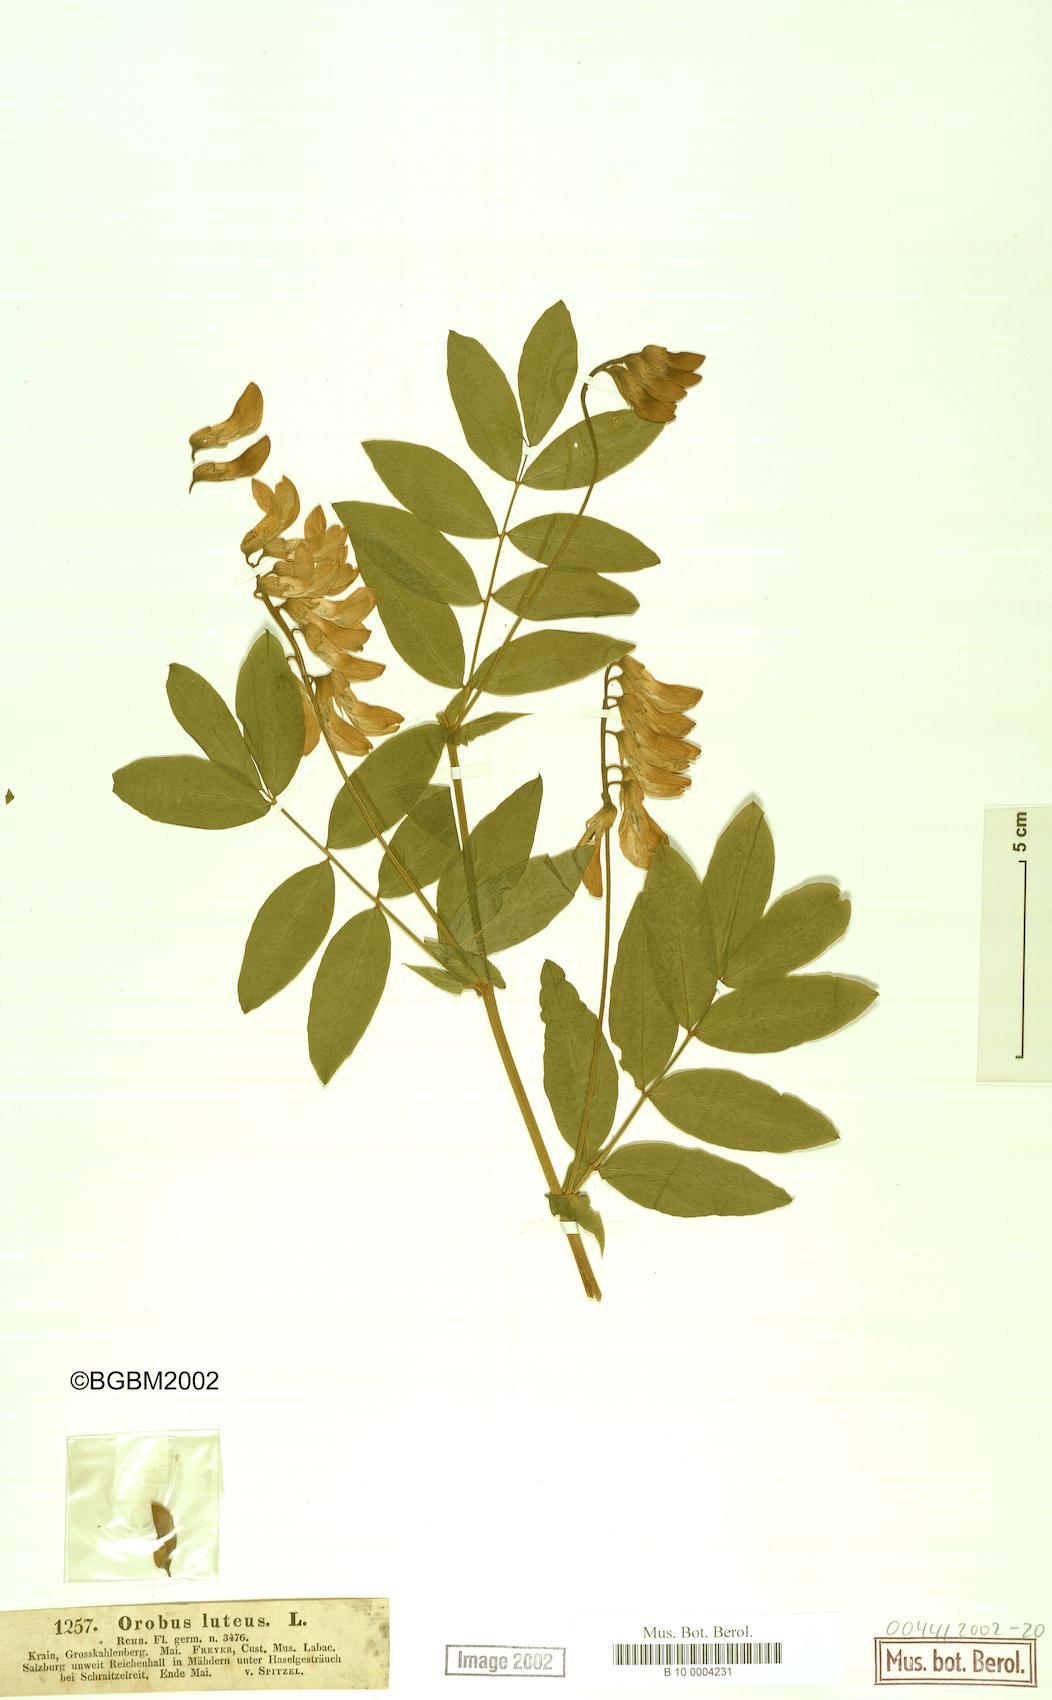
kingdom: Plantae
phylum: Tracheophyta
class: Magnoliopsida
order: Fabales
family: Fabaceae
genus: Lathyrus
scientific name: Lathyrus gmelinii
